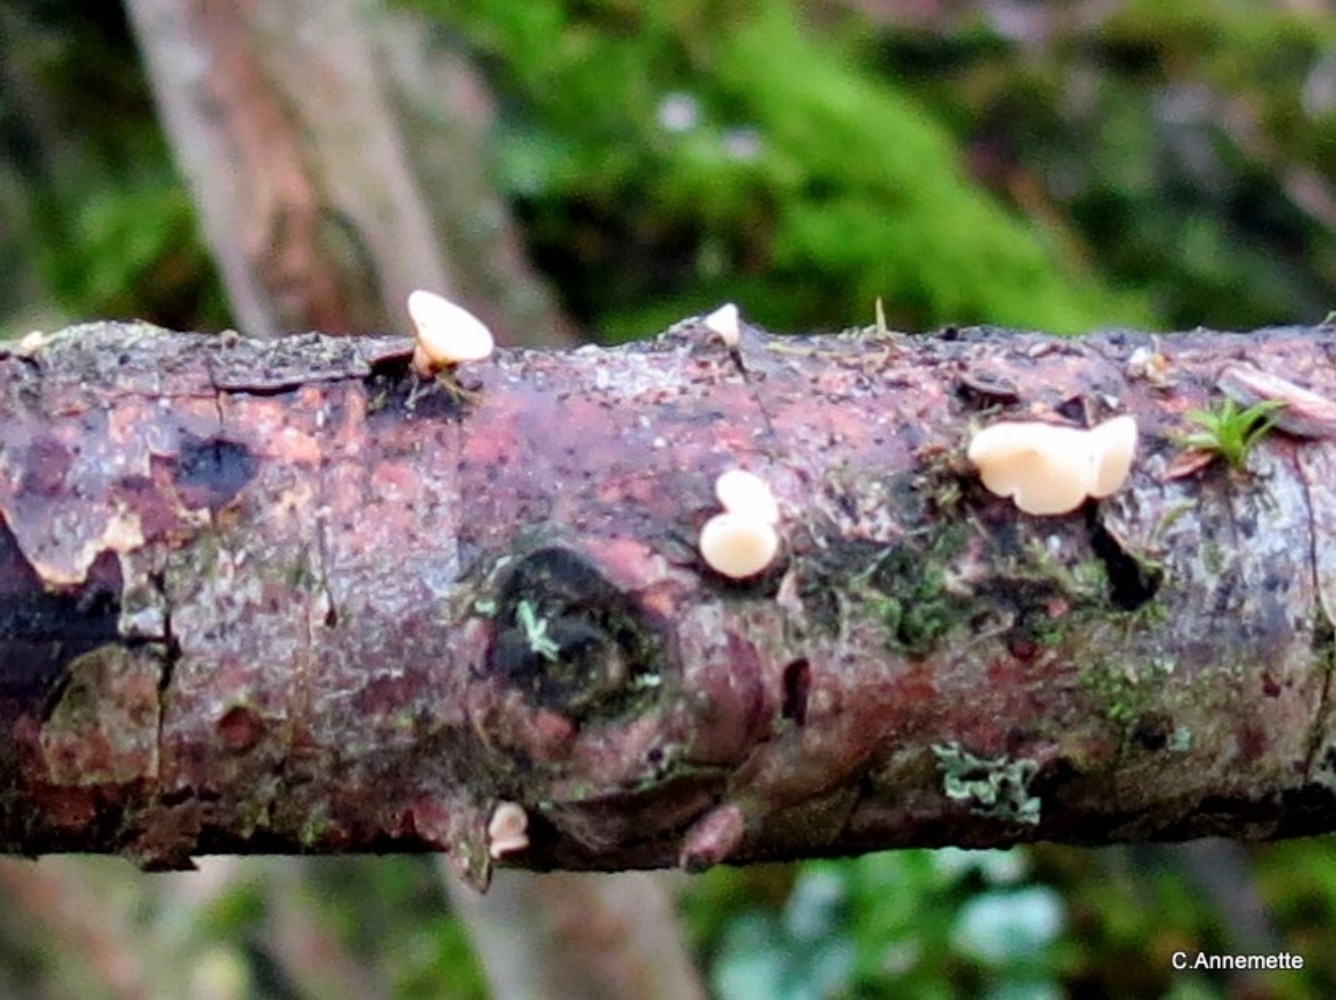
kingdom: Fungi
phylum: Ascomycota
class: Leotiomycetes
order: Helotiales
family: Helotiaceae
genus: Hymenoscyphus
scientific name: Hymenoscyphus
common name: stilkskive
